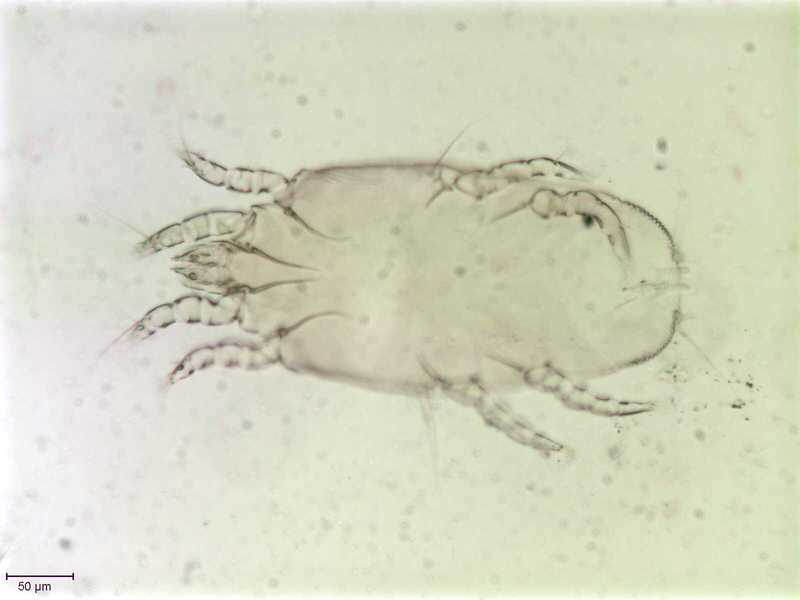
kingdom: Animalia
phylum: Arthropoda
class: Arachnida
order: Sarcoptiformes
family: Proctophyllodidae
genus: Proctophyllodes
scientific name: Proctophyllodes corvorum
